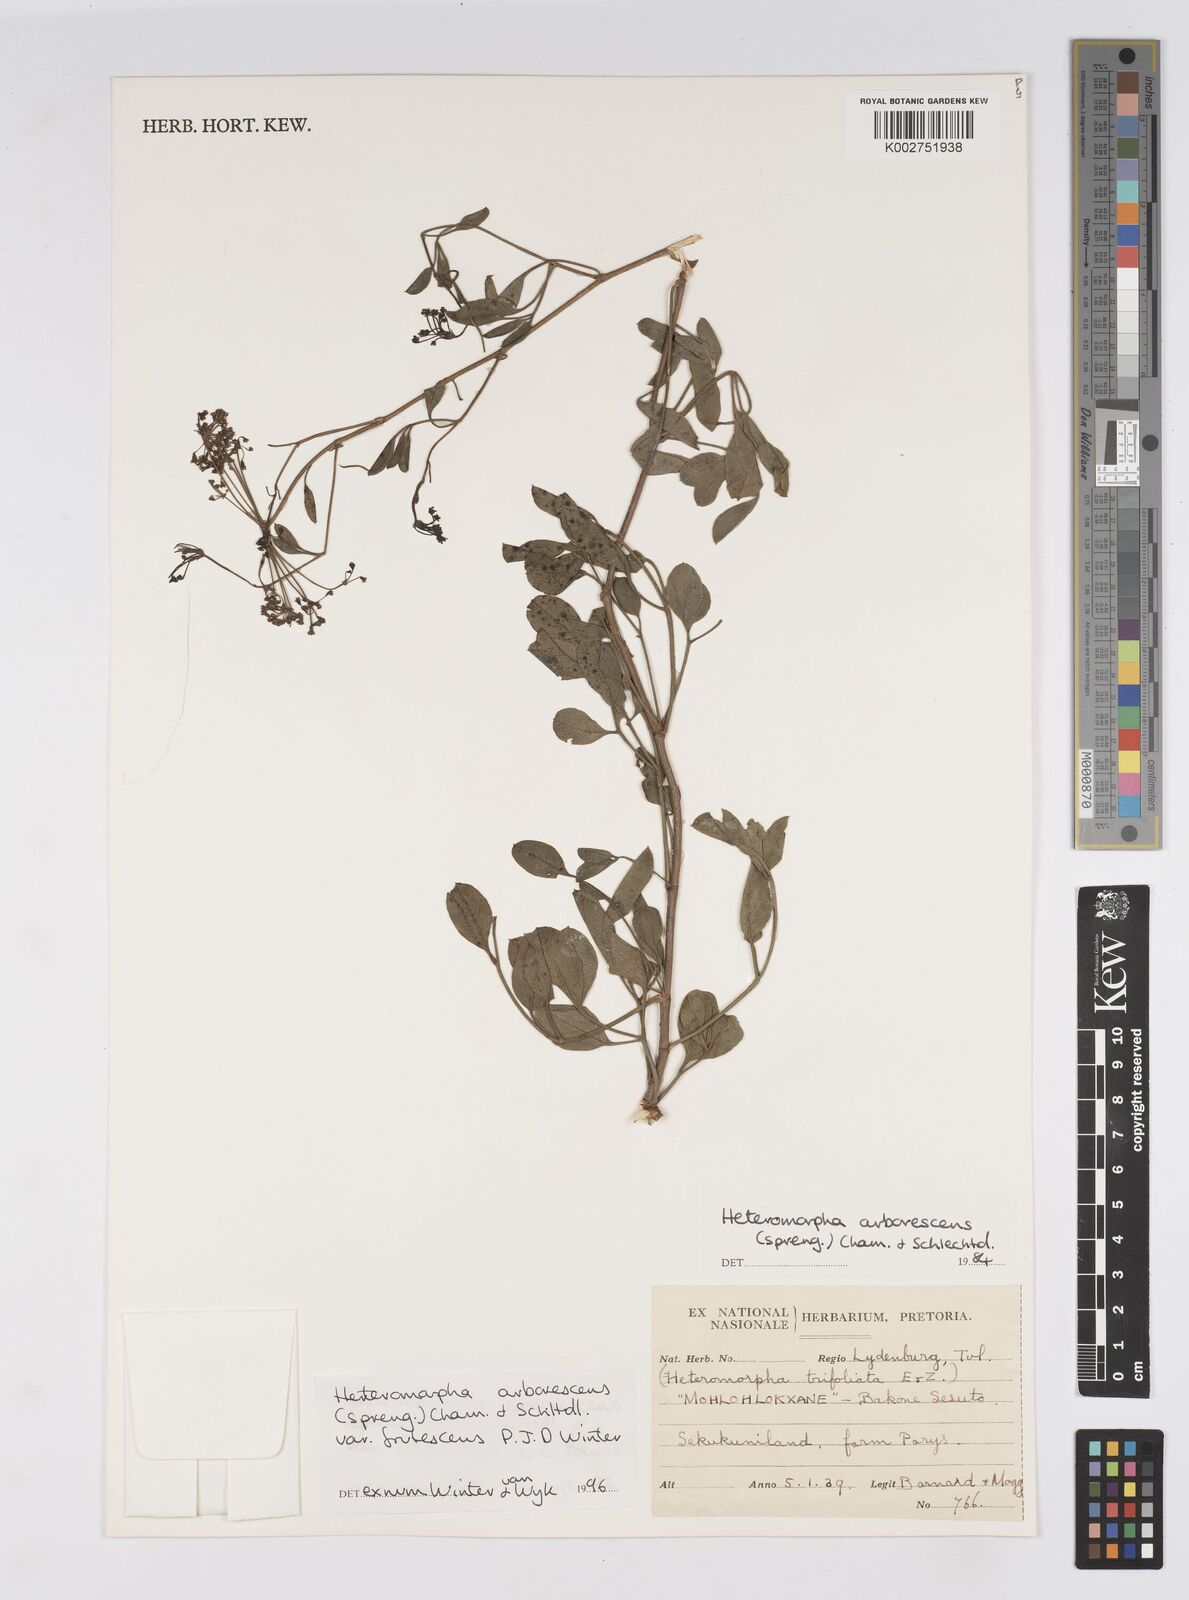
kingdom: Plantae
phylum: Tracheophyta
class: Magnoliopsida
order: Apiales
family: Apiaceae
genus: Heteromorpha
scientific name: Heteromorpha arborescens
